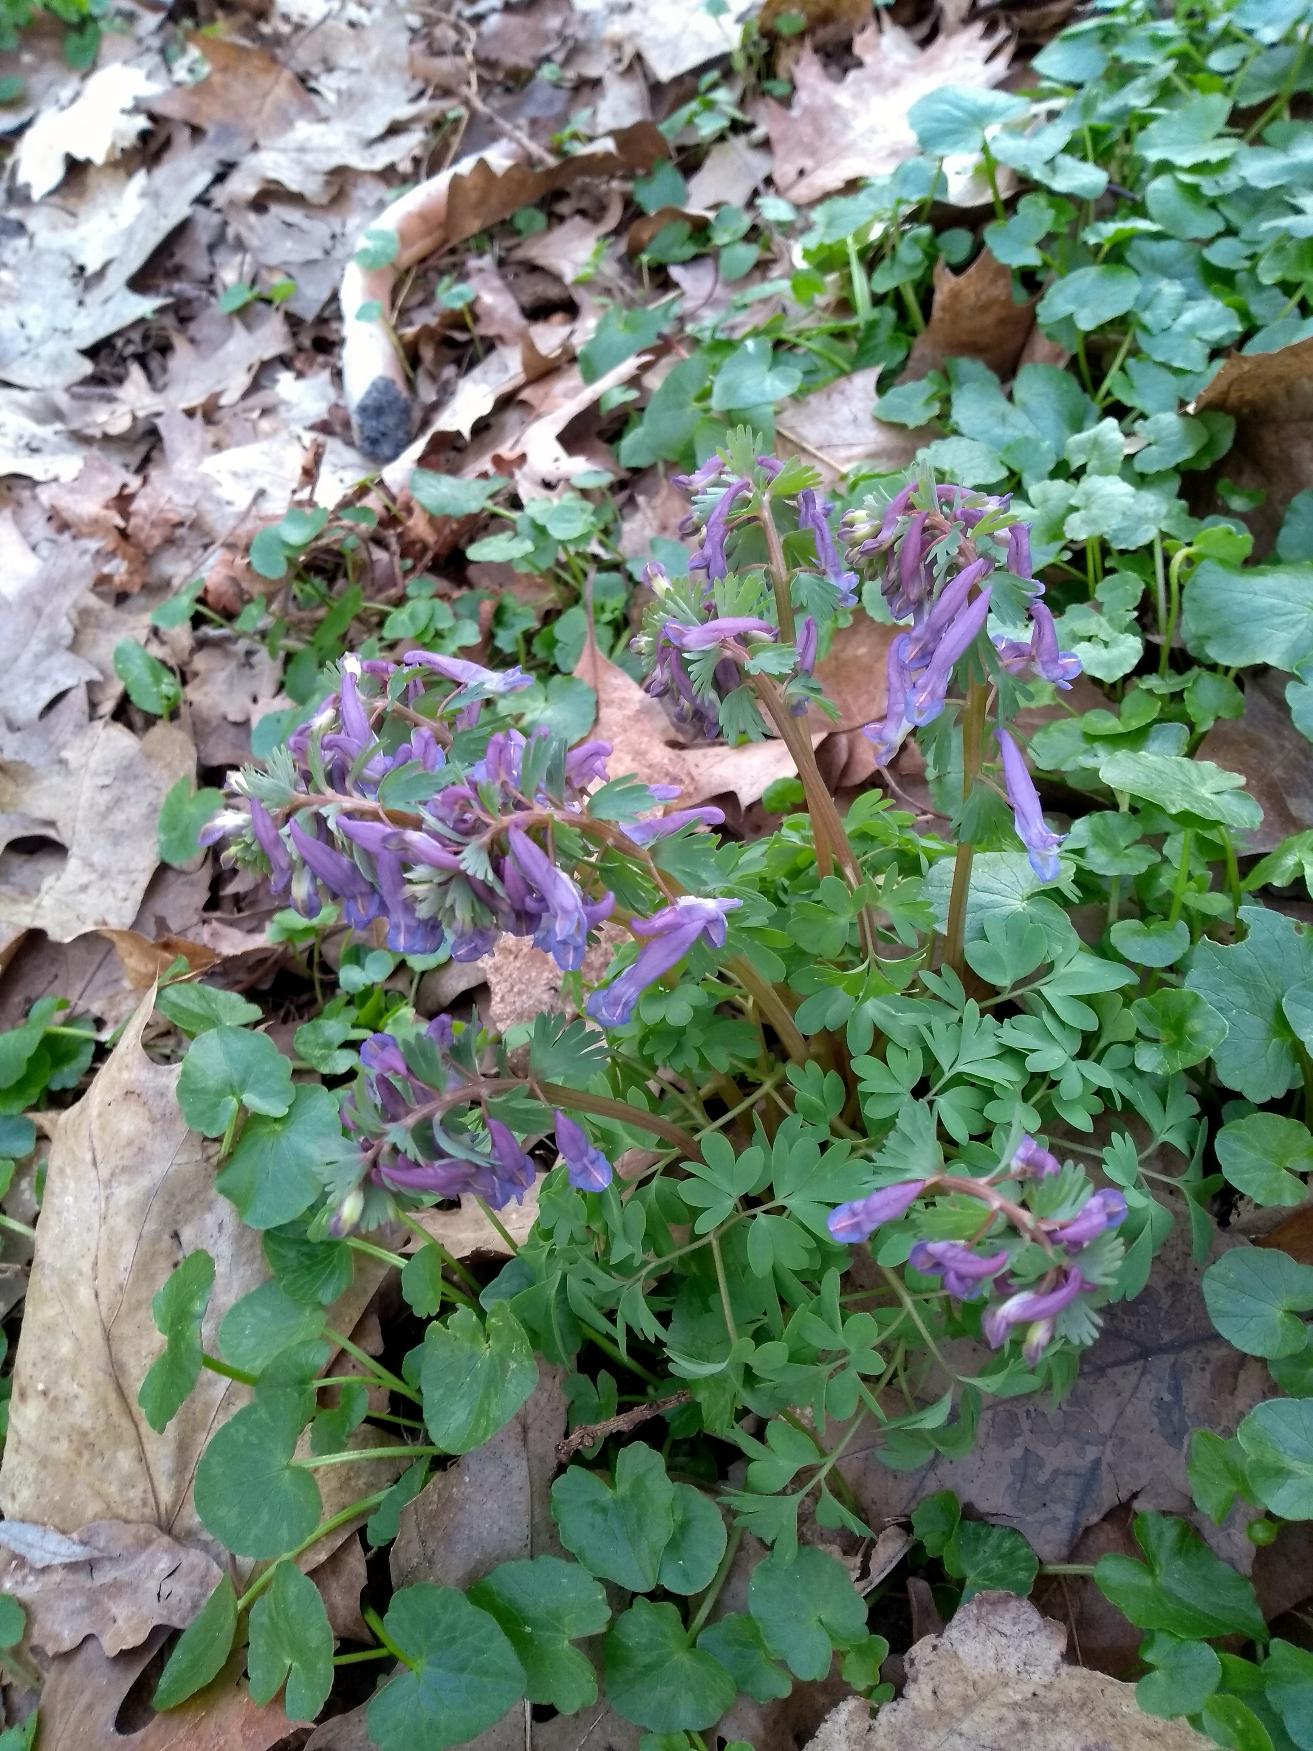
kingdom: Plantae
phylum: Tracheophyta
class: Magnoliopsida
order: Ranunculales
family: Papaveraceae
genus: Corydalis
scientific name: Corydalis solida
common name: Langstilket lærkespore
